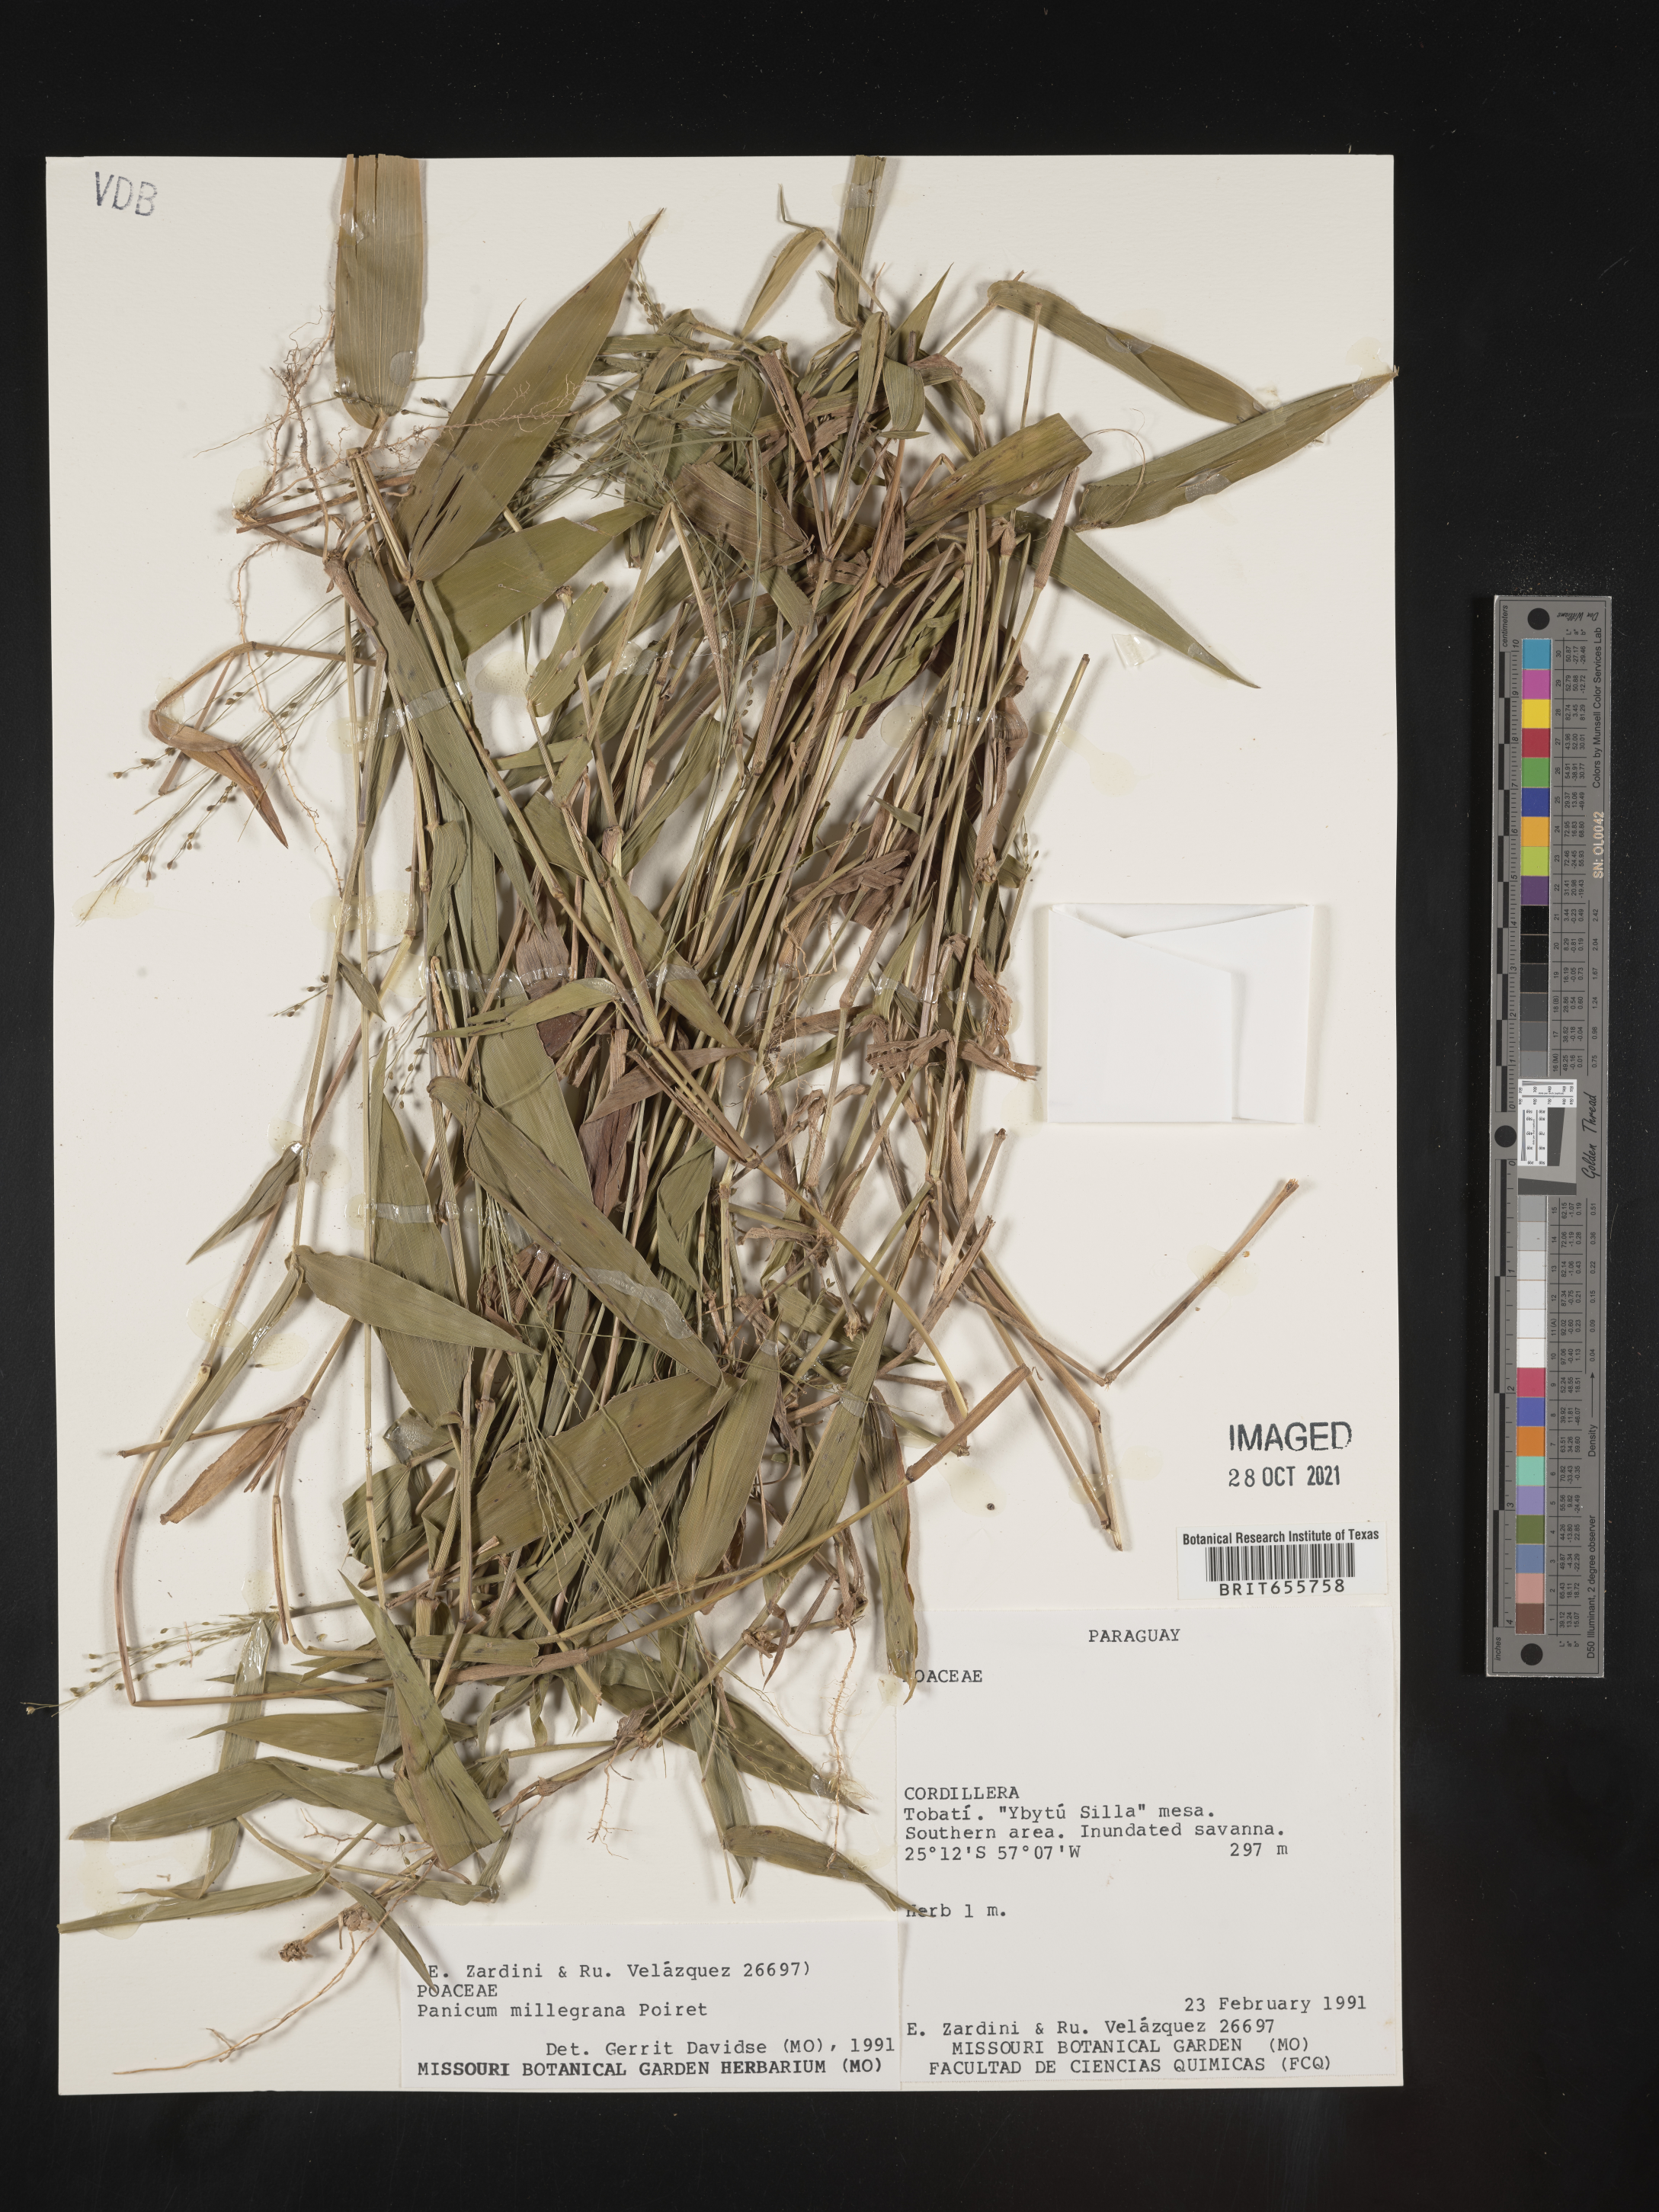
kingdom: Plantae
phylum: Tracheophyta
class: Liliopsida
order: Poales
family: Poaceae
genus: Panicum
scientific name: Panicum
